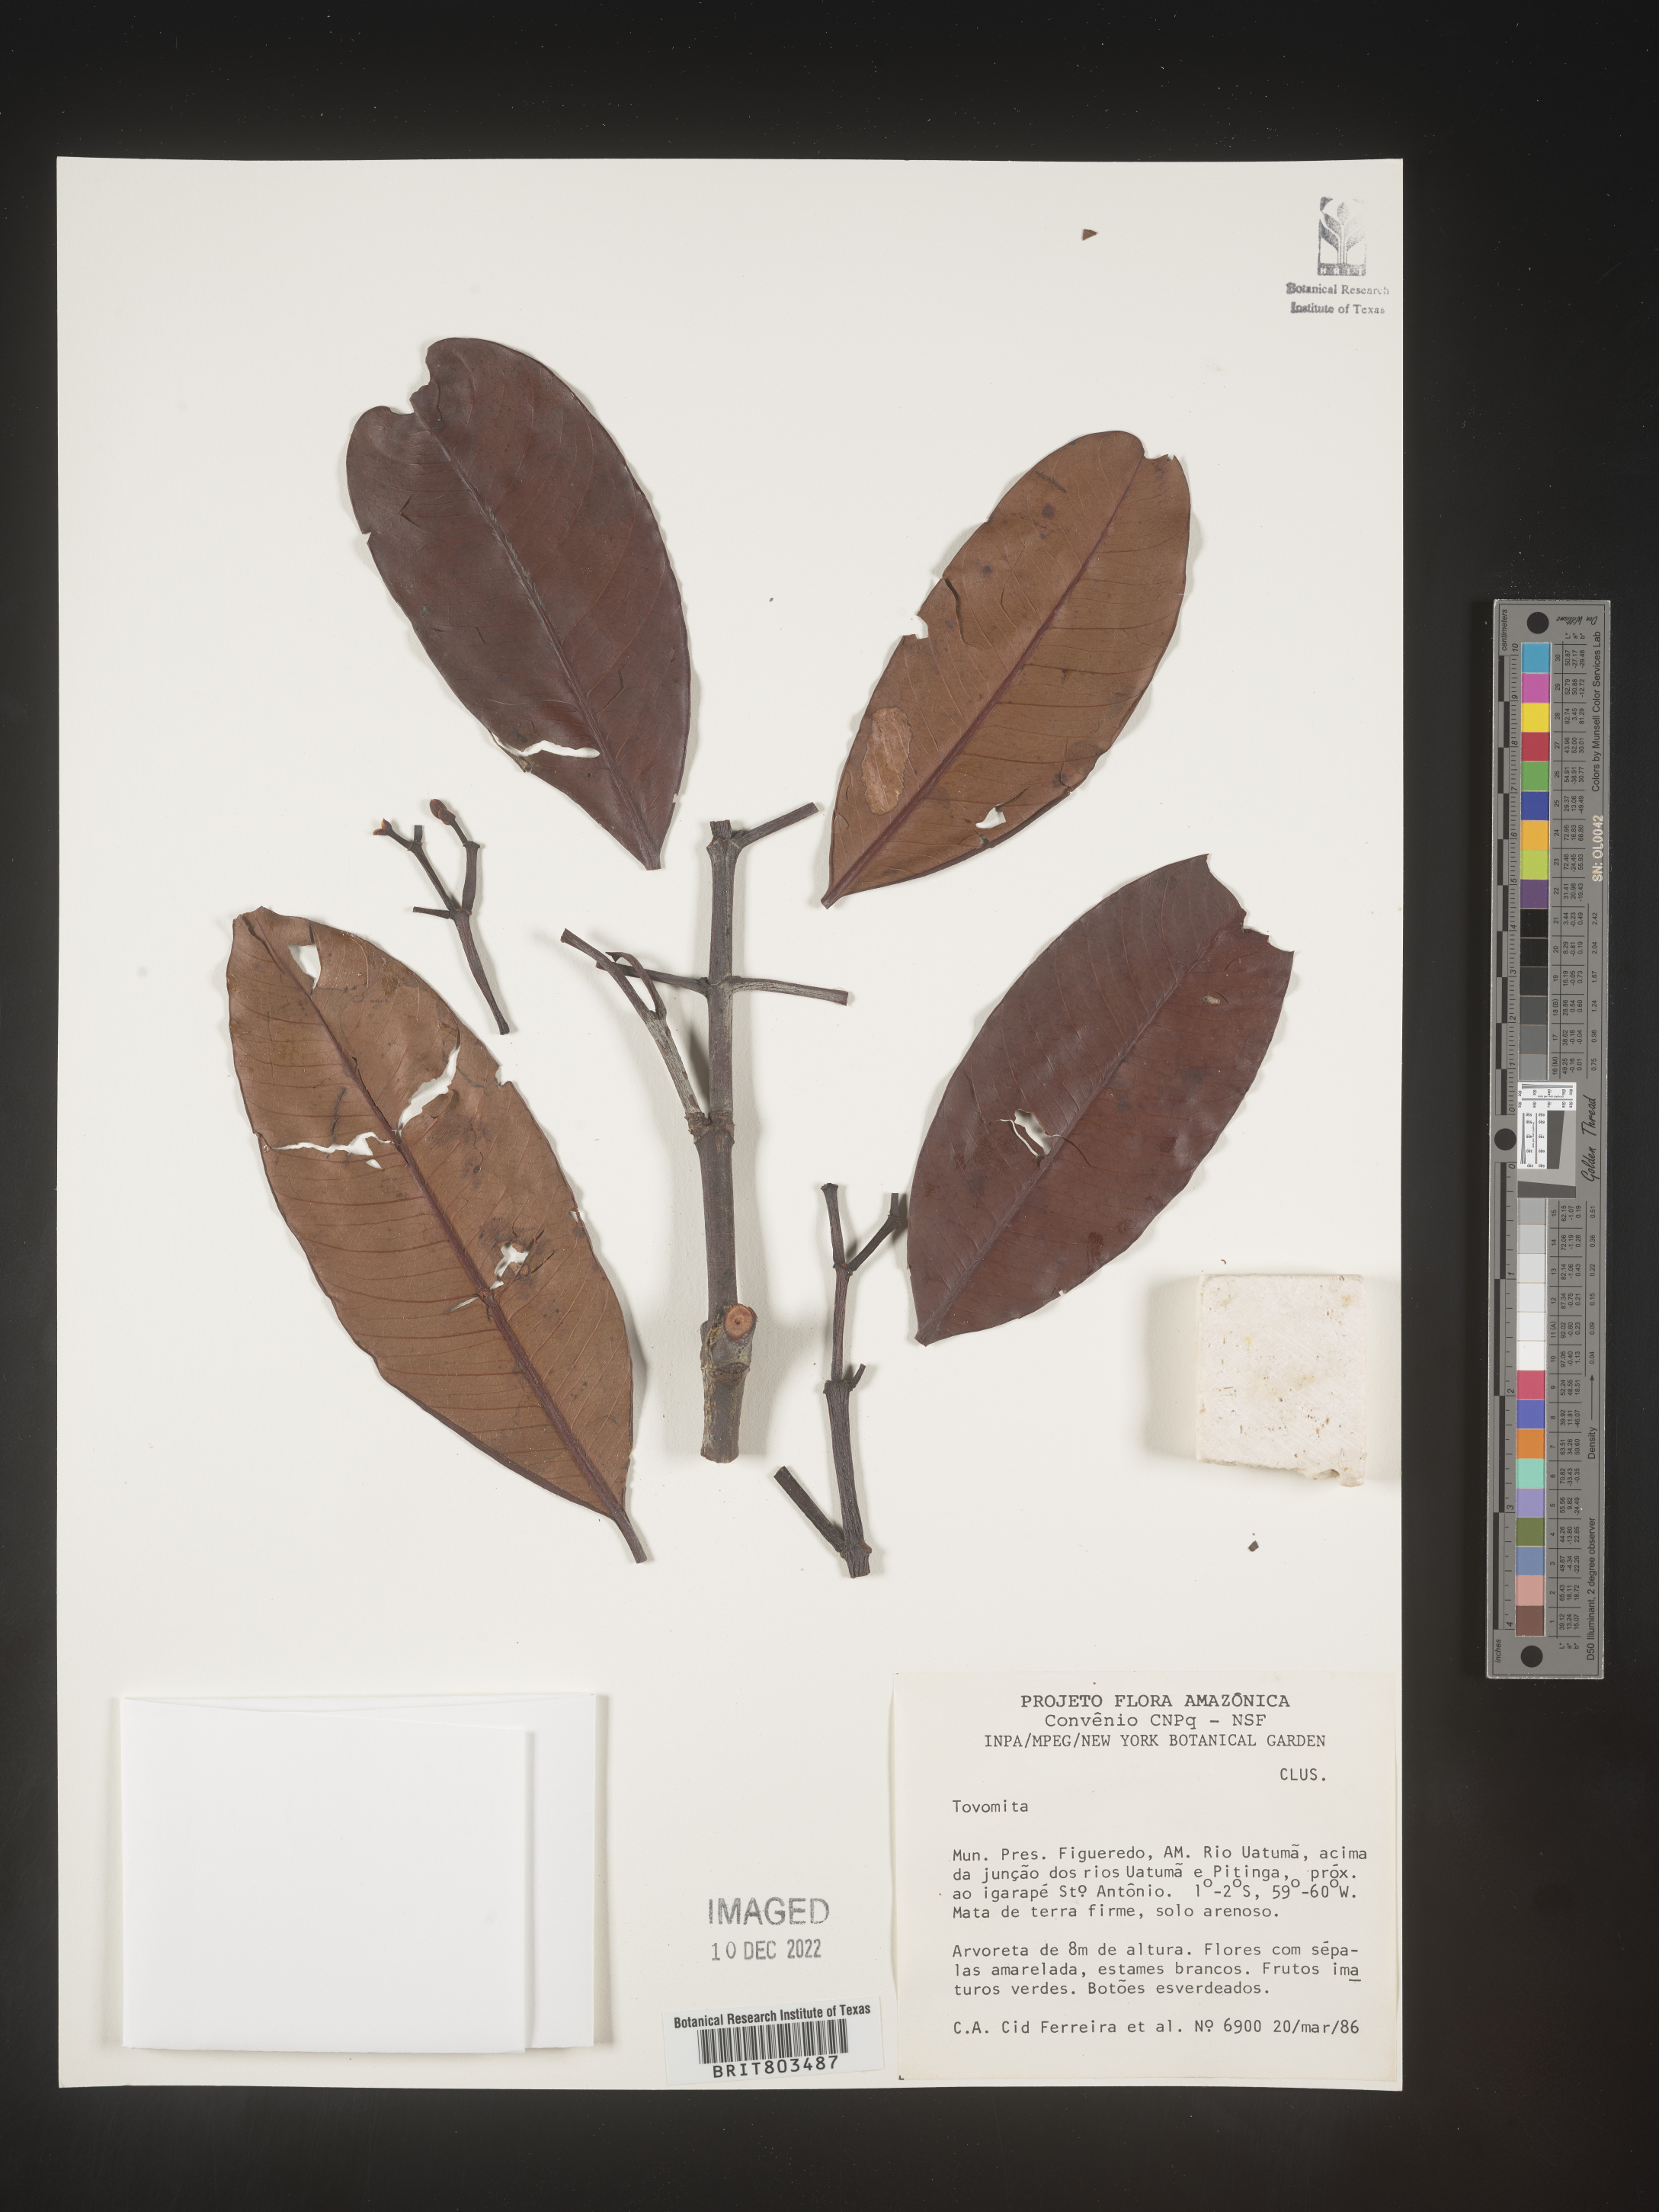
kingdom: Plantae
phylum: Tracheophyta
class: Magnoliopsida
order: Malpighiales
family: Clusiaceae
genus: Tovomita
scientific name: Tovomita
